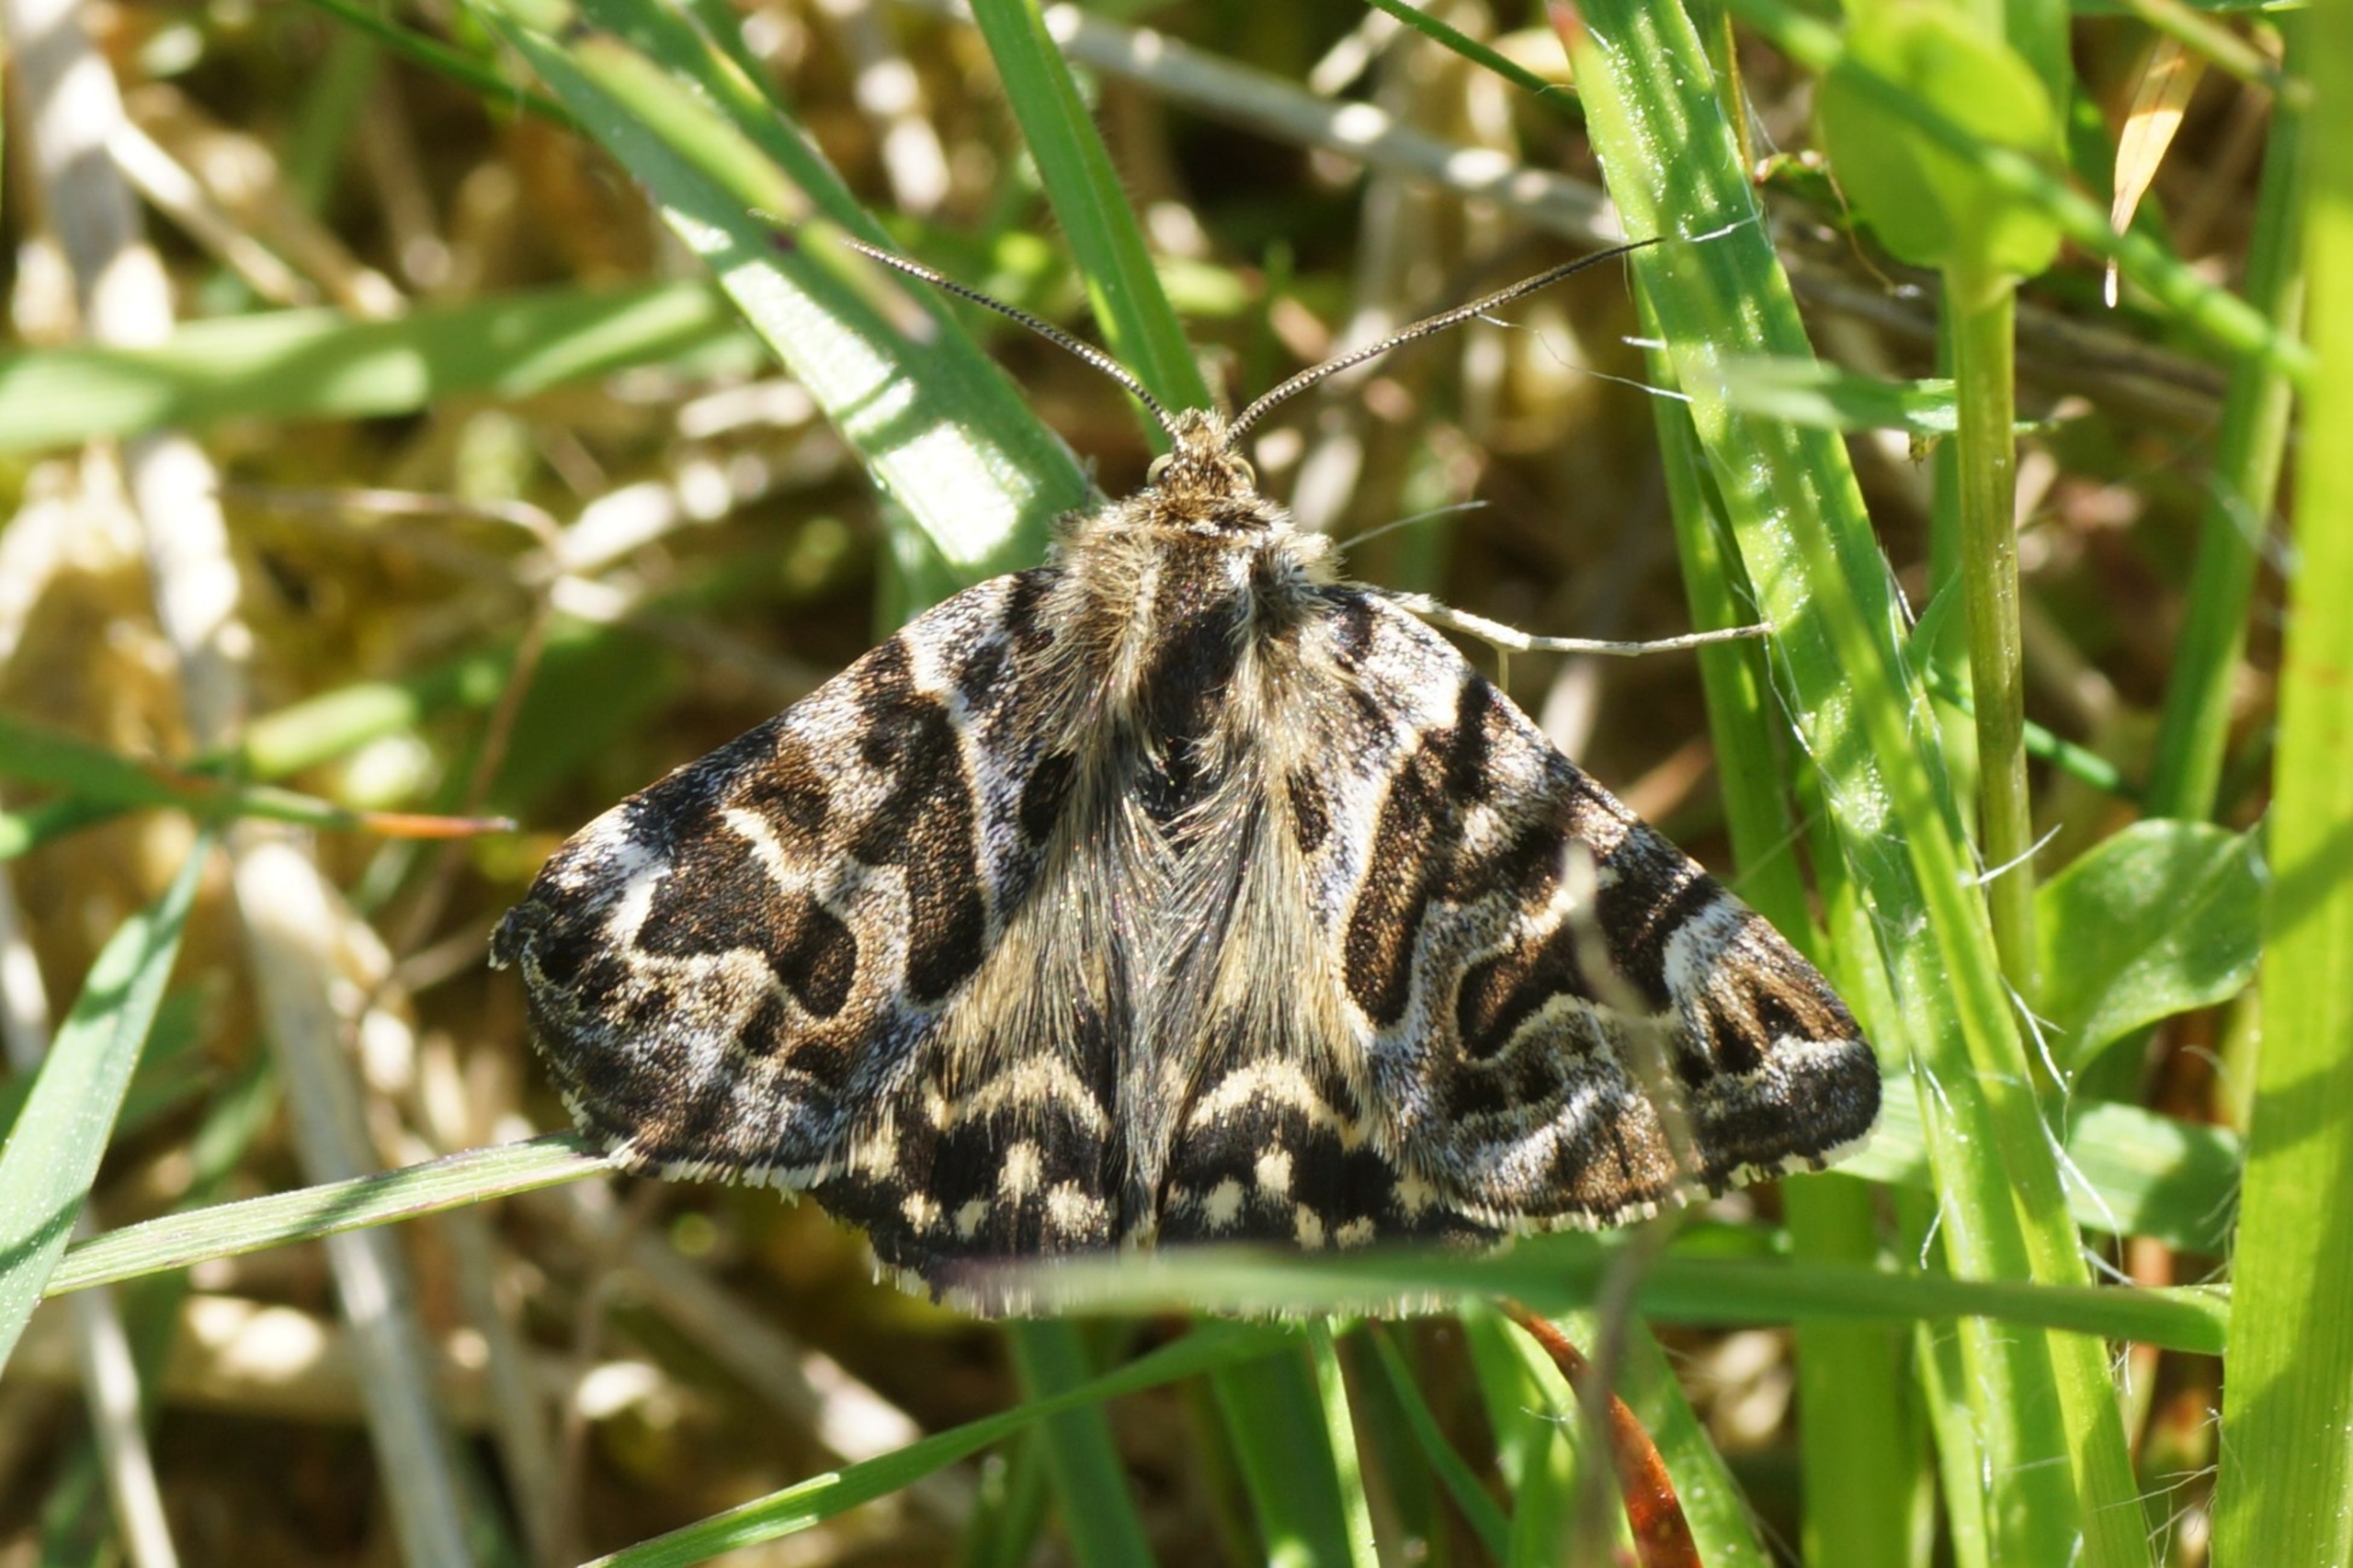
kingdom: Animalia
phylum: Arthropoda
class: Insecta
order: Lepidoptera
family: Erebidae
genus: Callistege
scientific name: Callistege mi
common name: Marmoreret kløverugle
